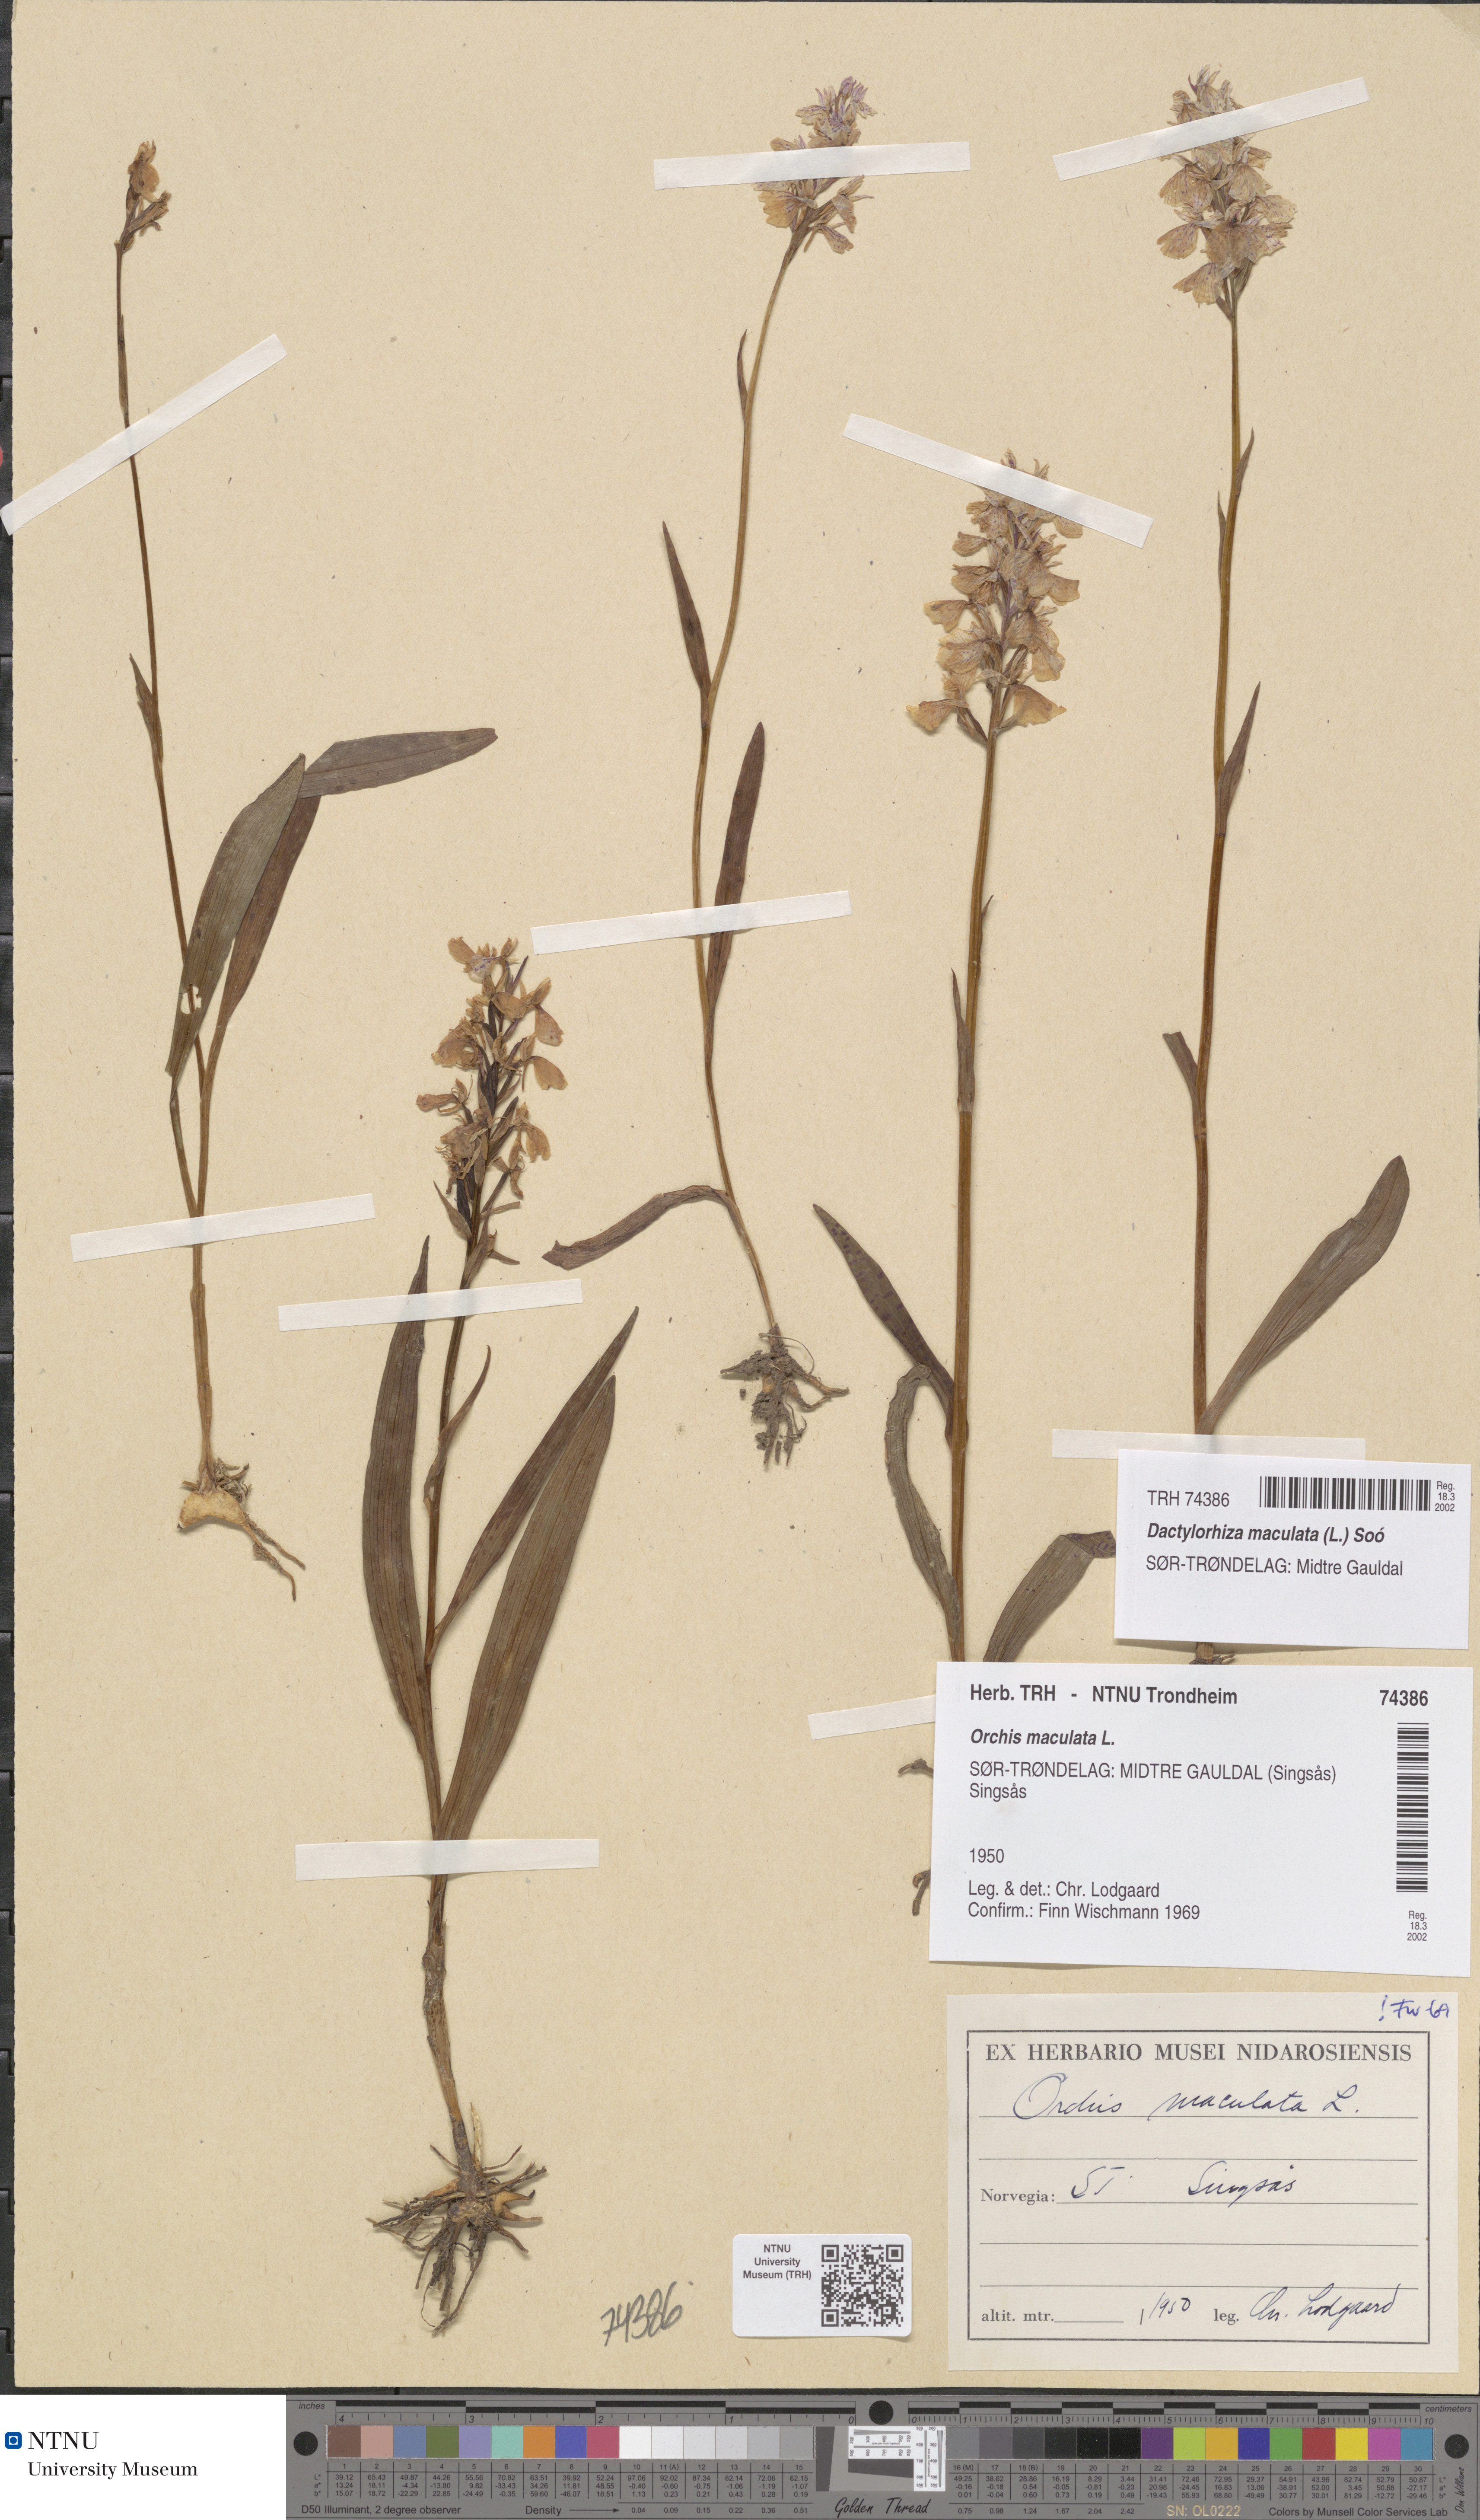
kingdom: Plantae
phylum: Tracheophyta
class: Liliopsida
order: Asparagales
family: Orchidaceae
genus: Dactylorhiza
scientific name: Dactylorhiza maculata
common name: Heath spotted-orchid
